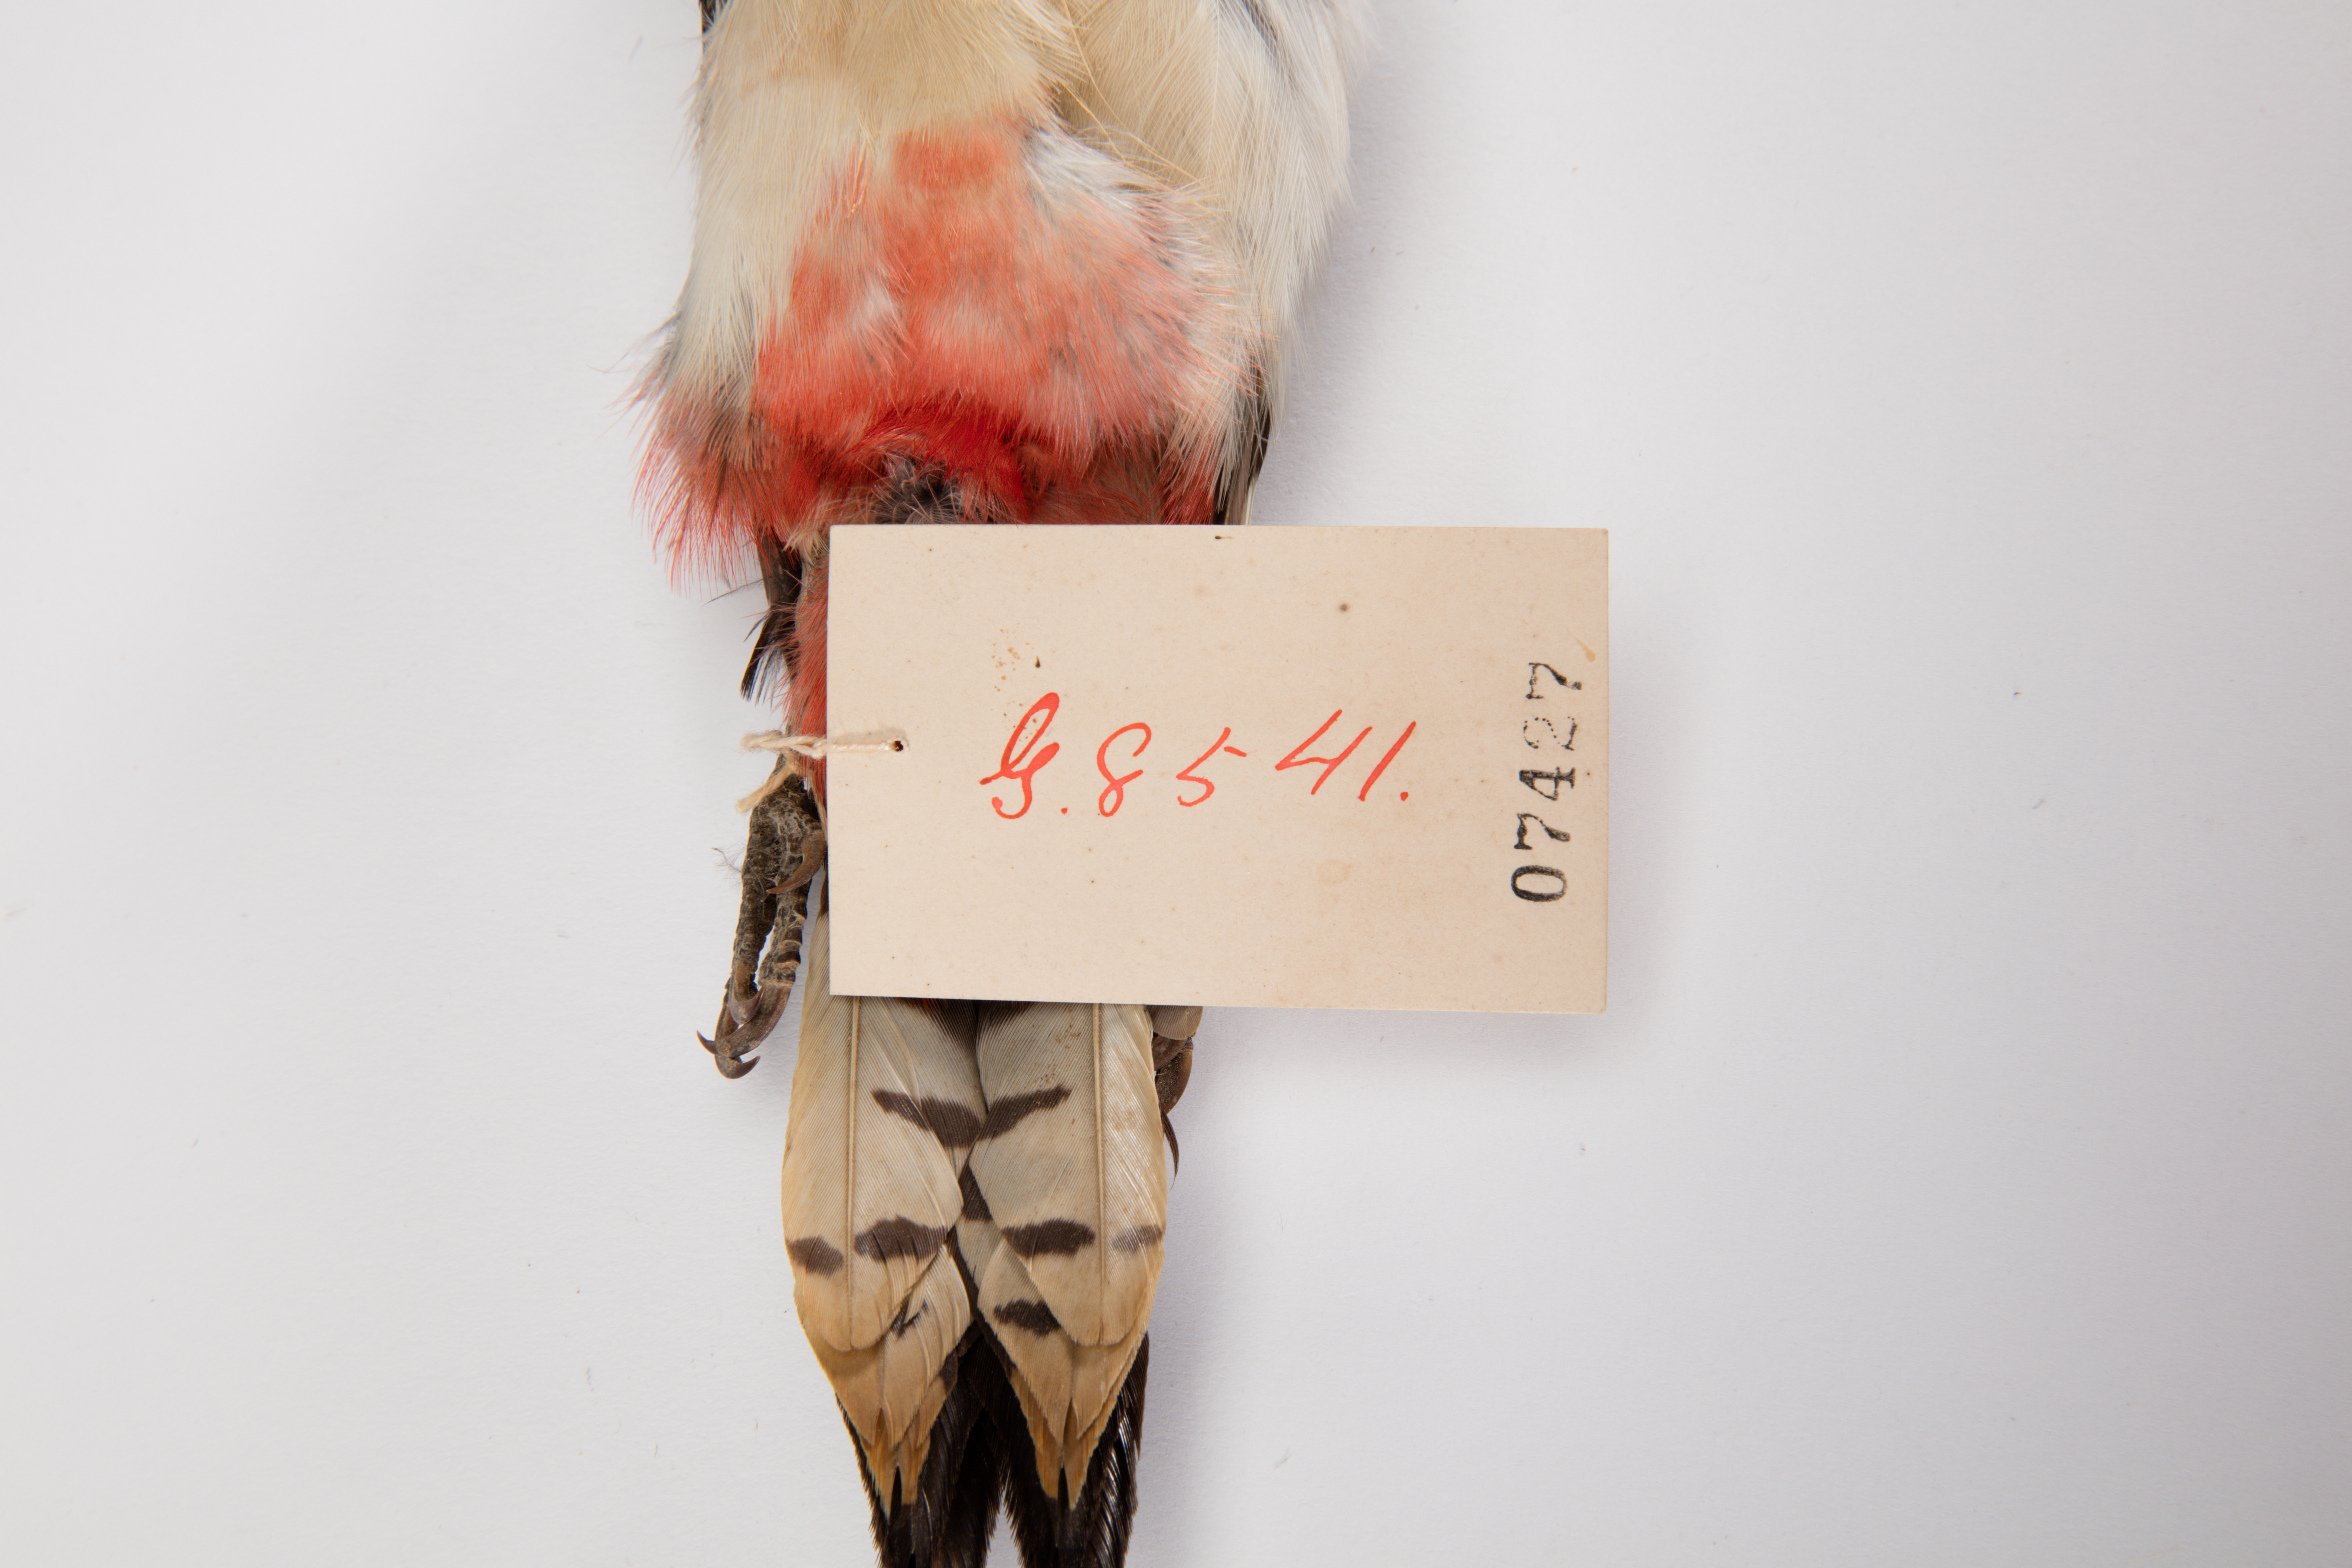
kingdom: Animalia
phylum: Chordata
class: Aves
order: Piciformes
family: Picidae
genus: Dendrocopos
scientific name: Dendrocopos major
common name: Great spotted woodpecker
